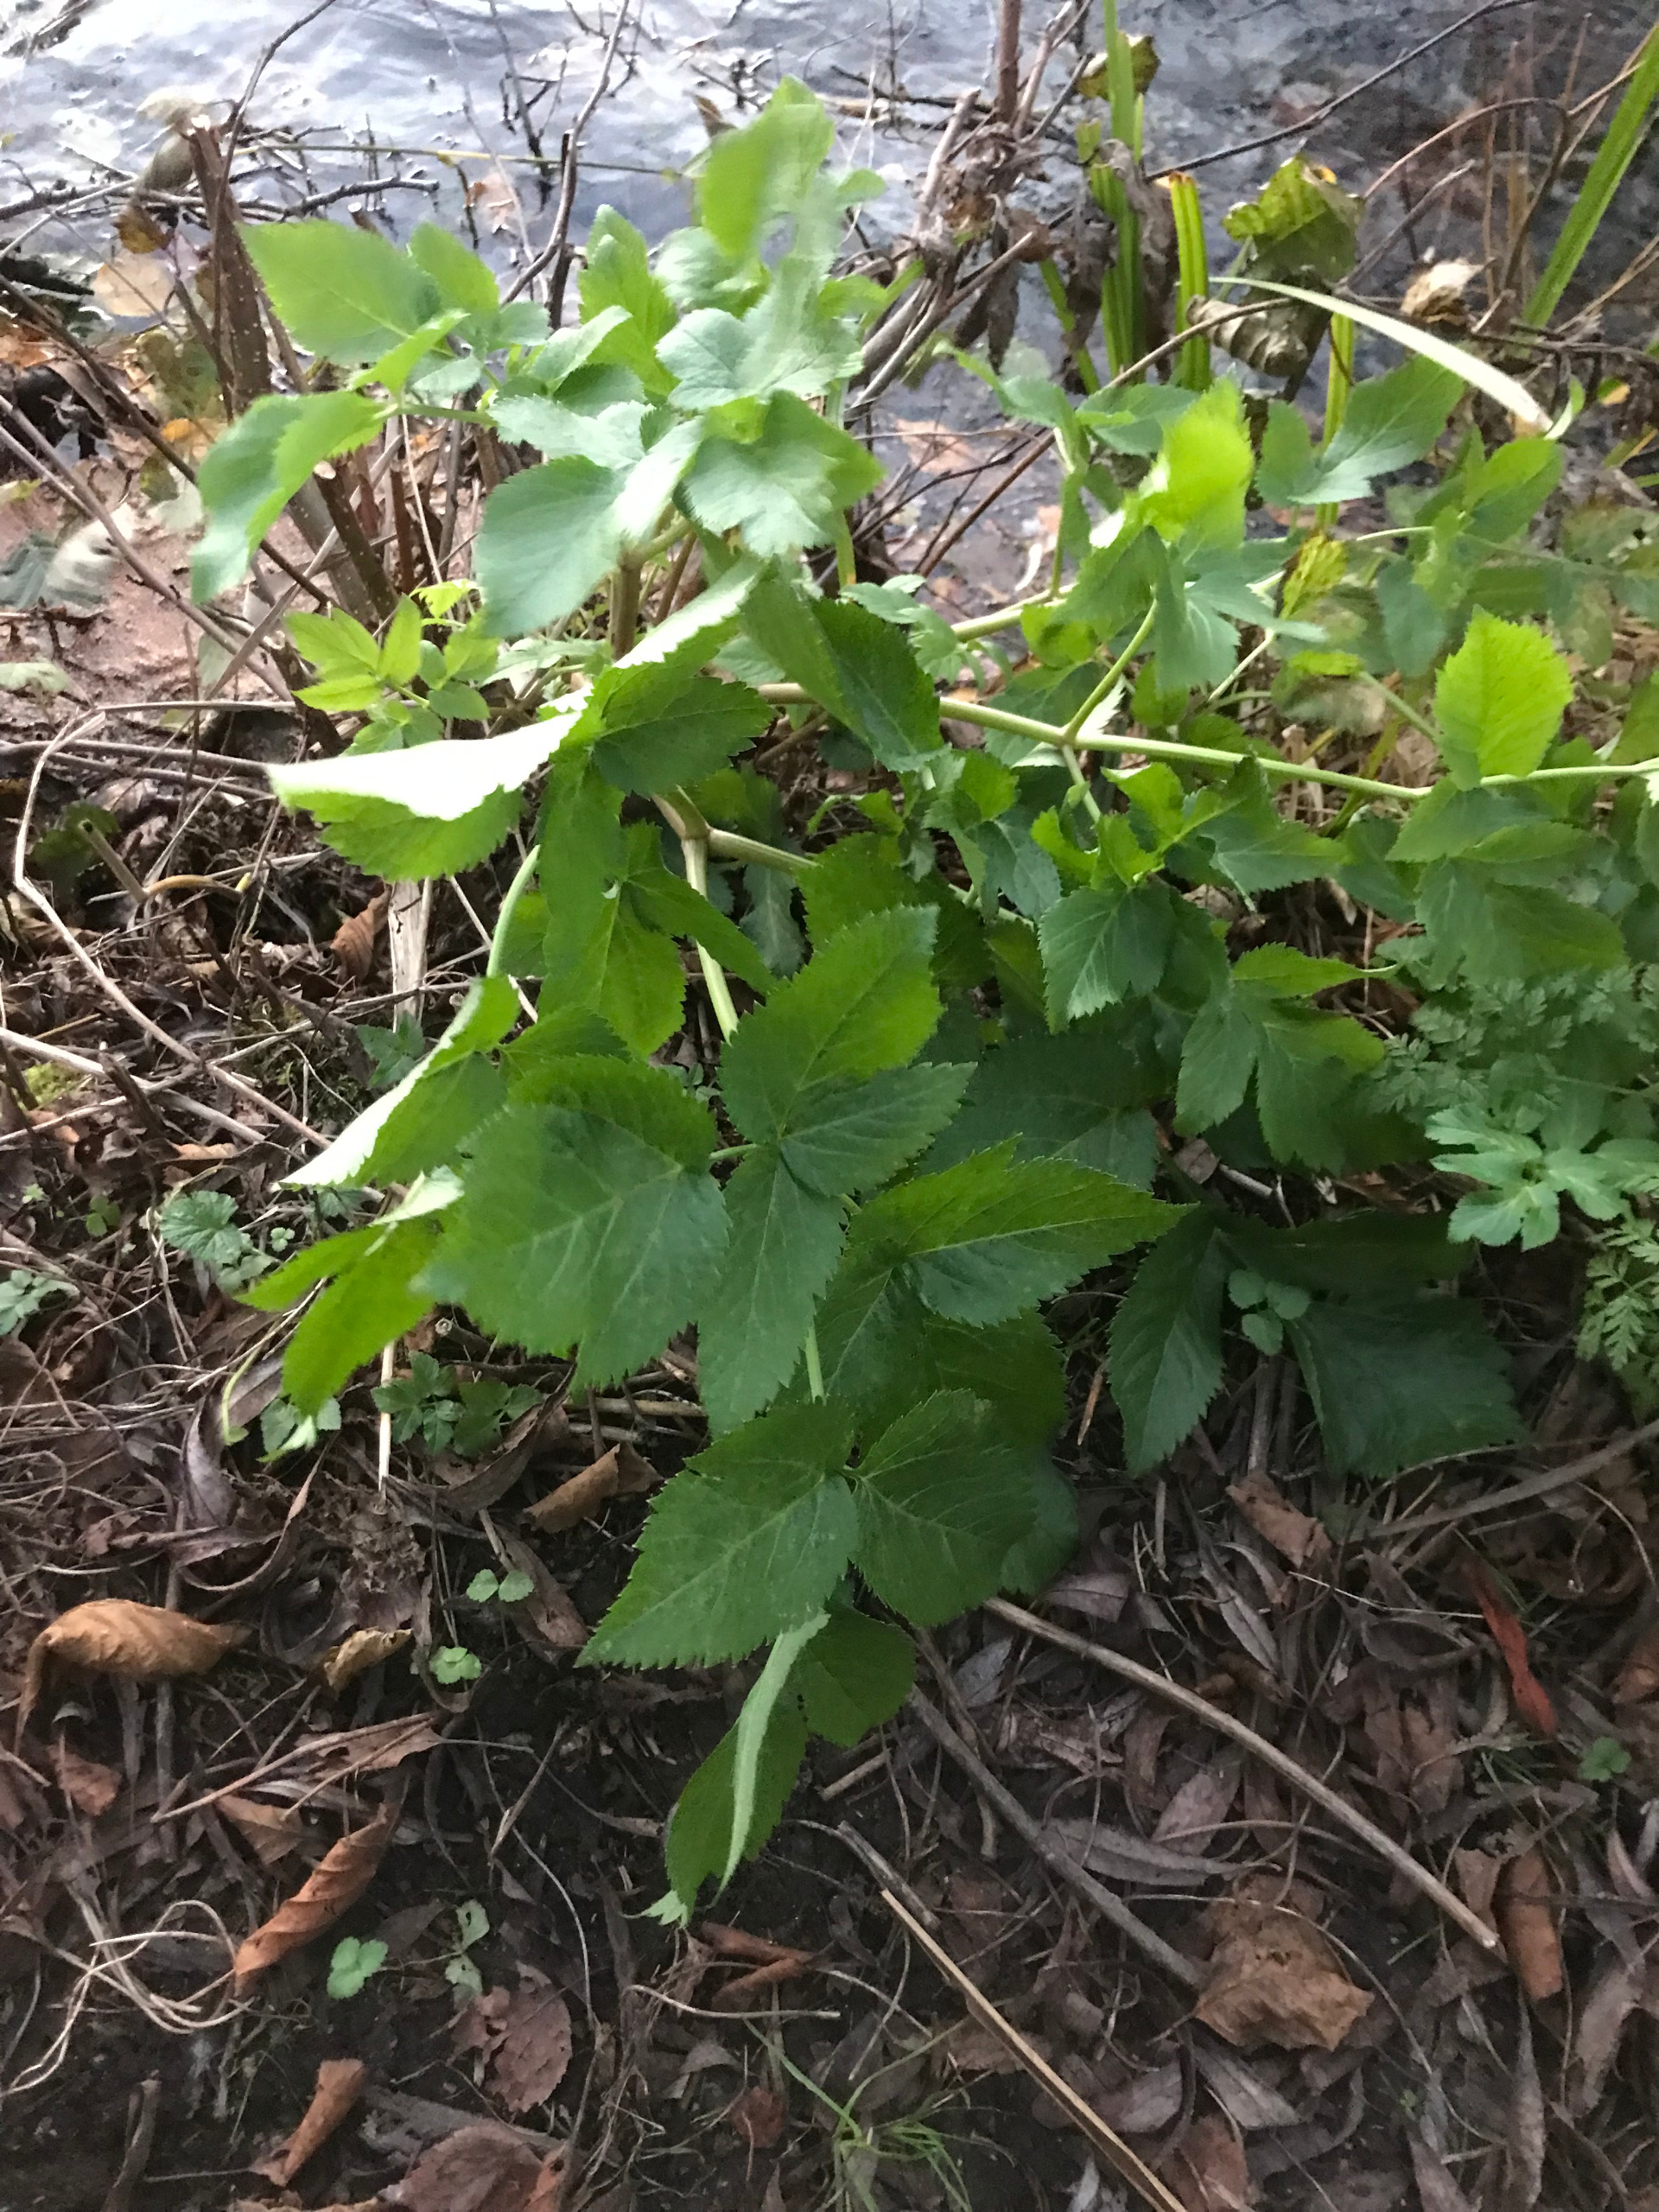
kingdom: Plantae
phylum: Tracheophyta
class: Magnoliopsida
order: Apiales
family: Apiaceae
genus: Angelica
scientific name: Angelica archangelica
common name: Kvan
